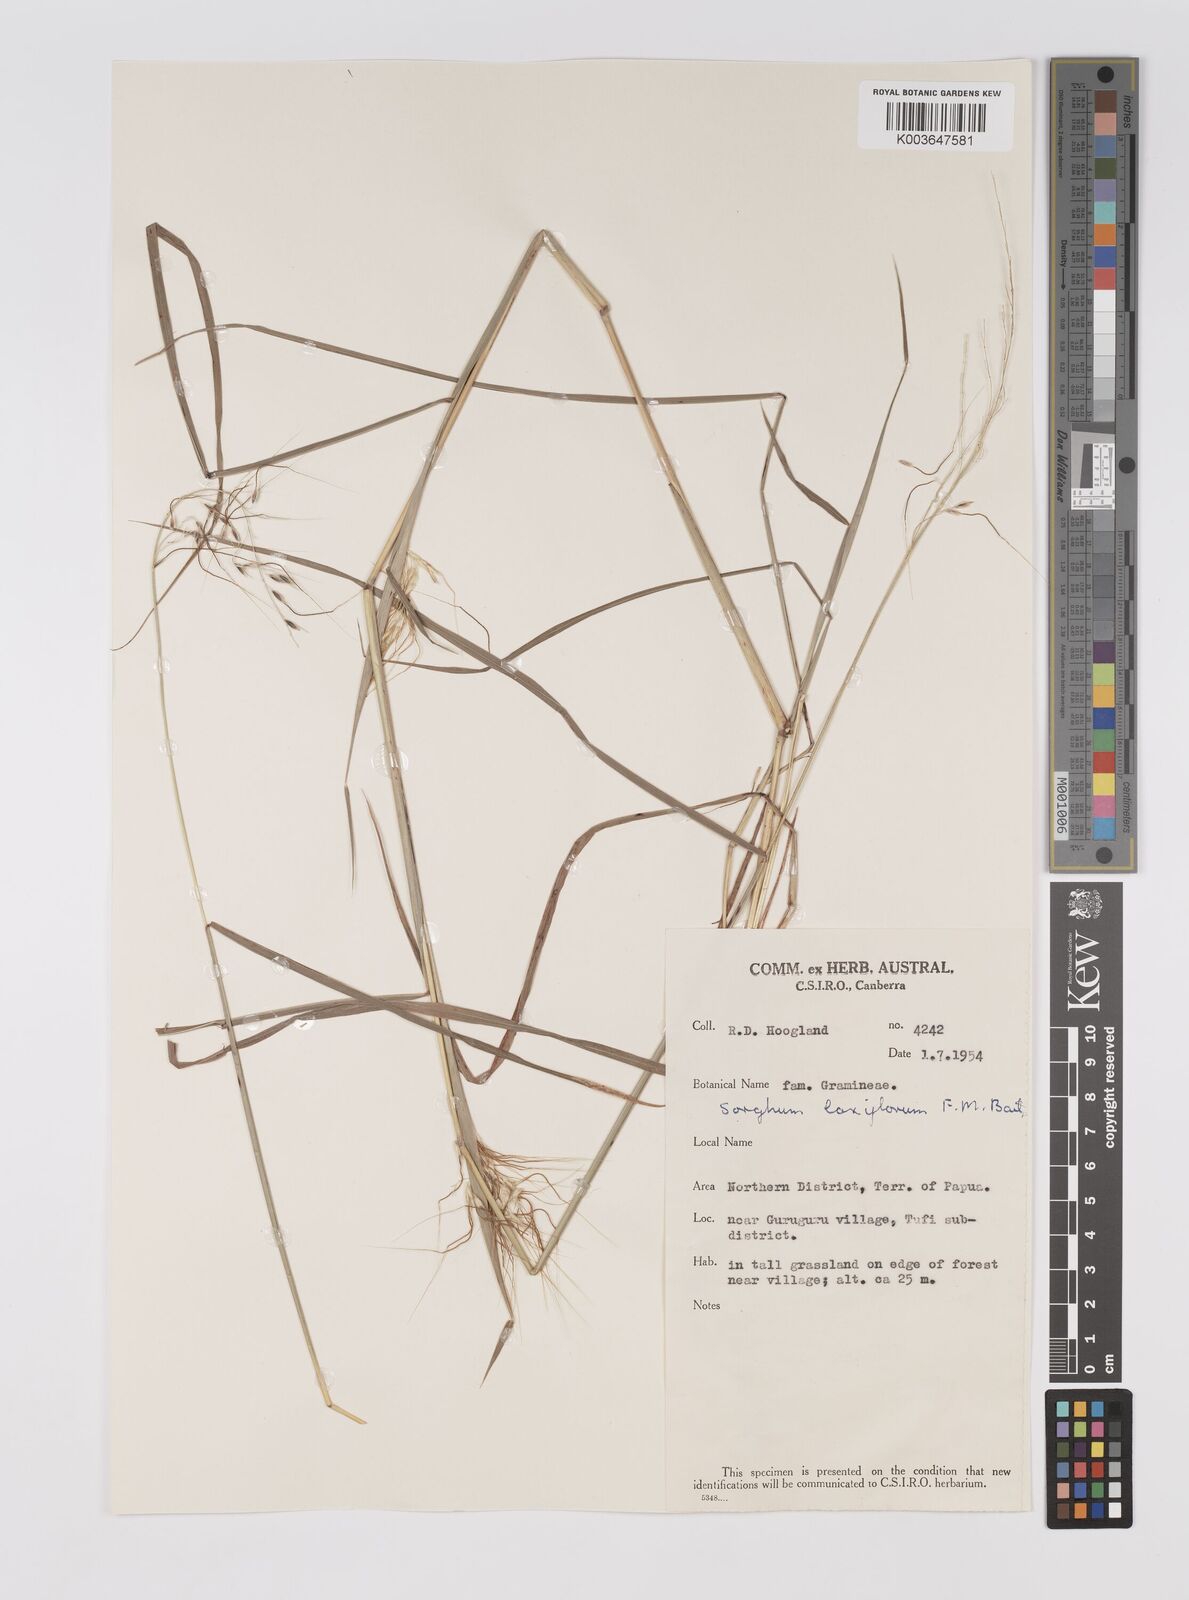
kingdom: Plantae
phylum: Tracheophyta
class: Liliopsida
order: Poales
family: Poaceae
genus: Sorghum
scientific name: Sorghum laxiflorum
